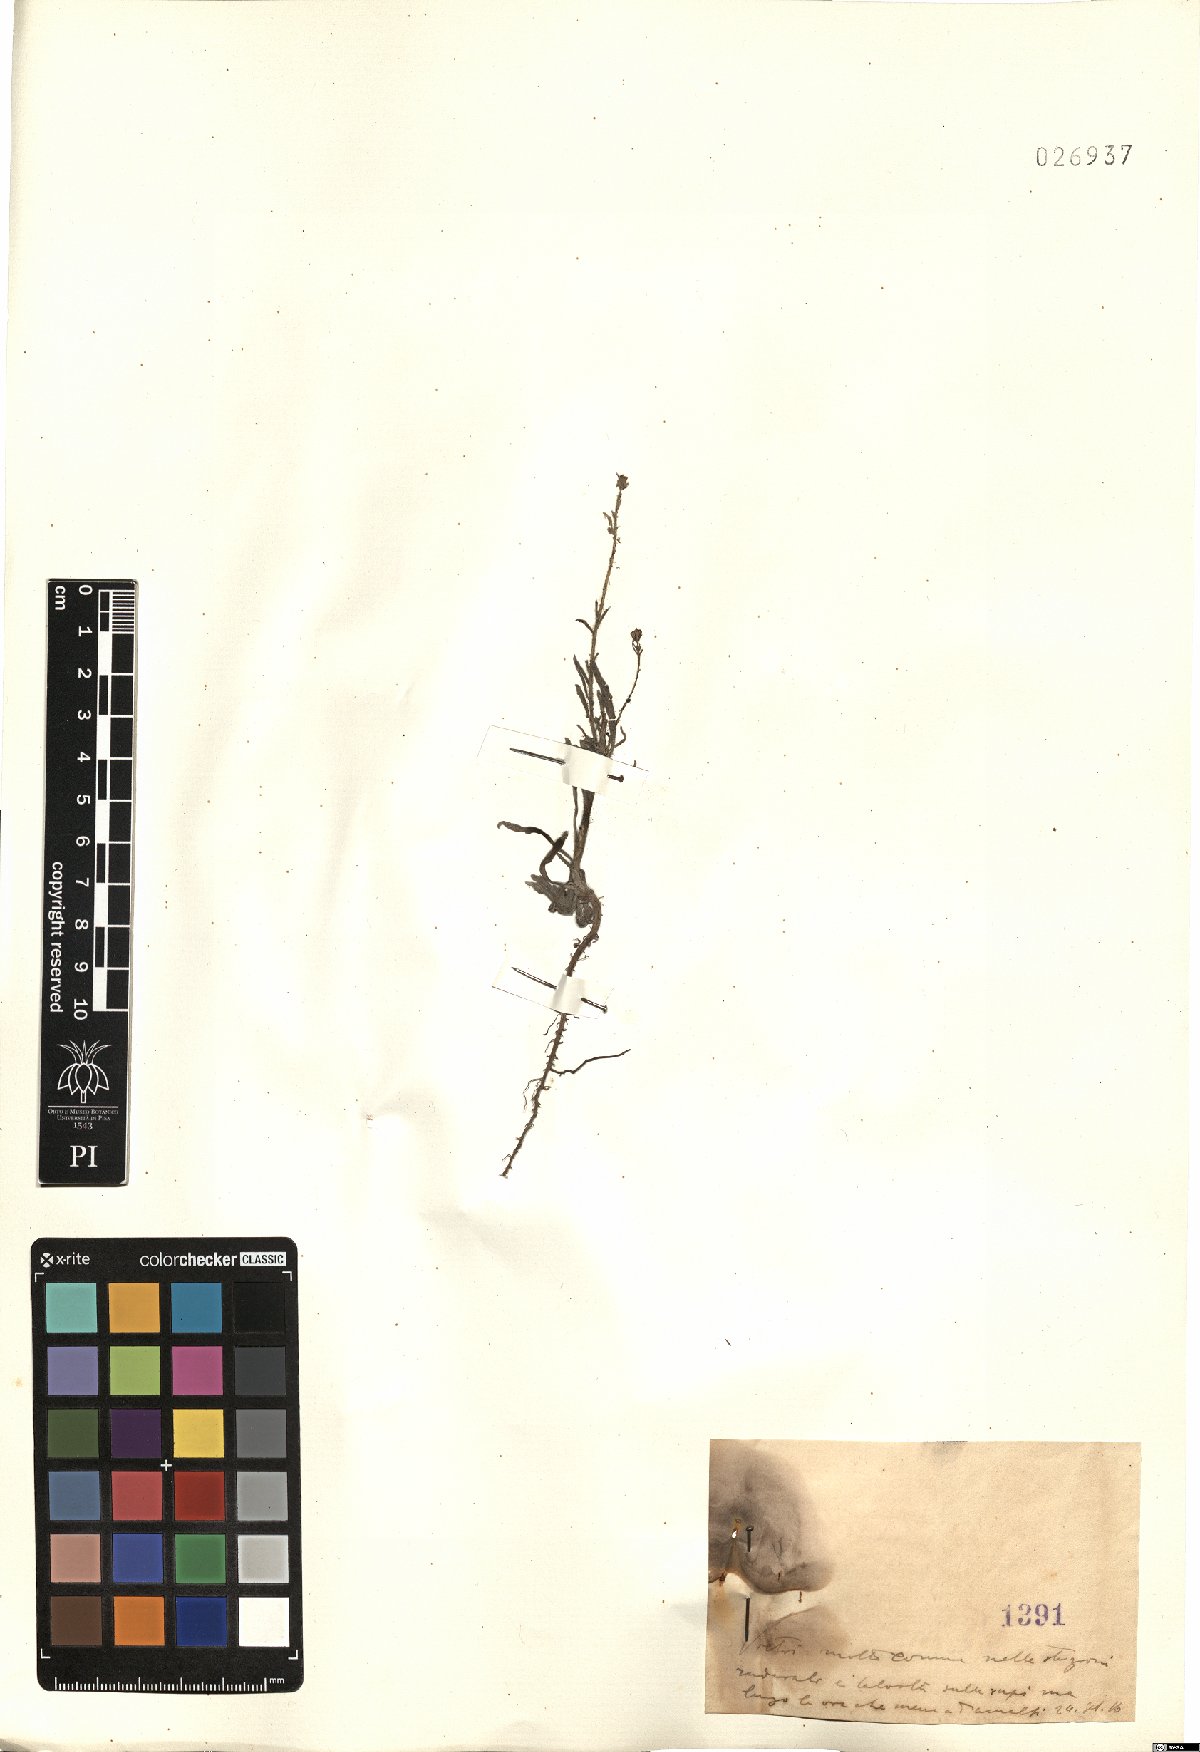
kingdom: Plantae
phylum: Tracheophyta
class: Magnoliopsida
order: Asterales
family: Asteraceae
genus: Erigeron
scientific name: Erigeron
